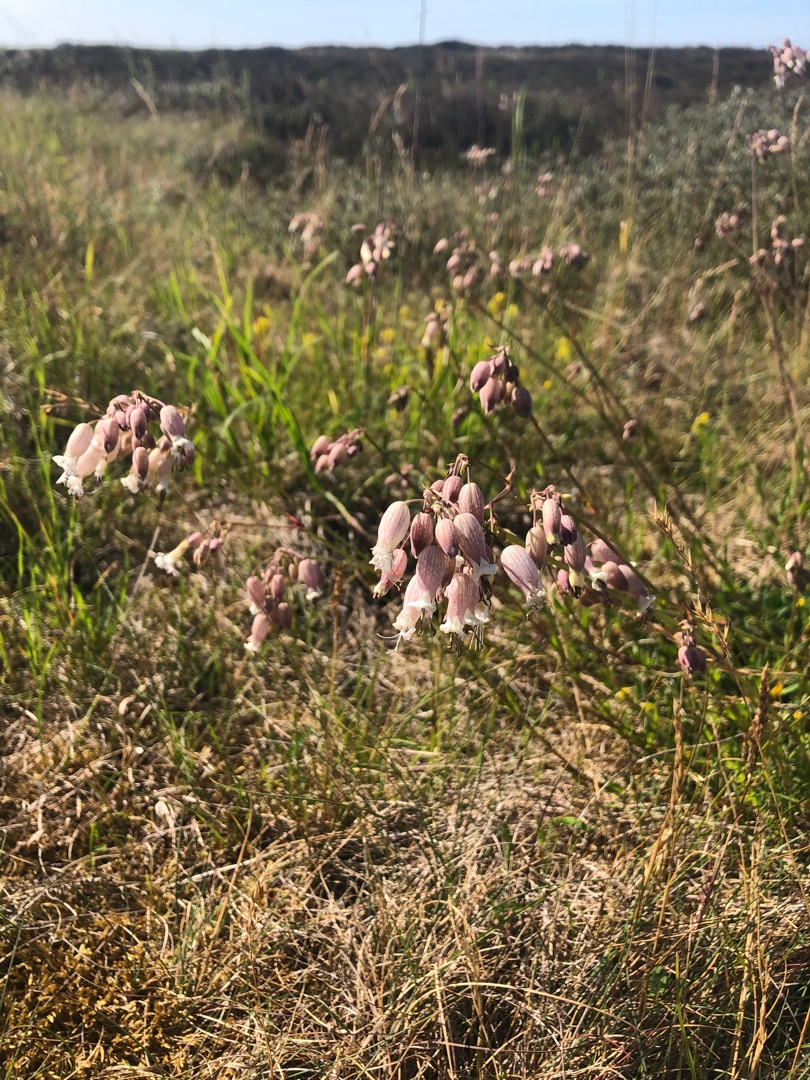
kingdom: Plantae
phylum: Tracheophyta
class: Magnoliopsida
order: Caryophyllales
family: Caryophyllaceae
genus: Silene
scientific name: Silene vulgaris
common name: Blæresmælde
